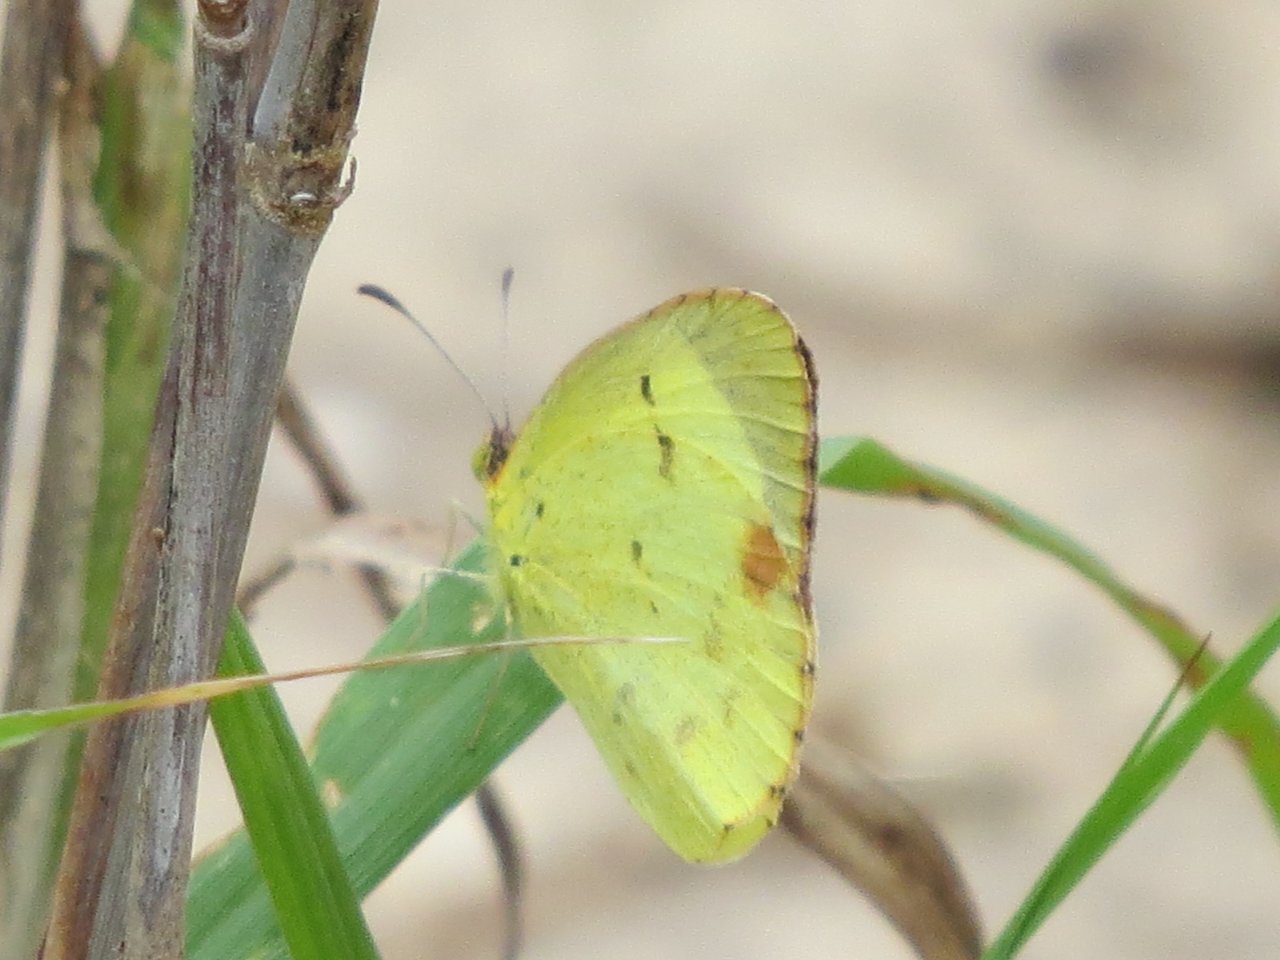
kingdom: Animalia
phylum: Arthropoda
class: Insecta
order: Lepidoptera
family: Pieridae
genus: Pyrisitia
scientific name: Pyrisitia lisa
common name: Little Yellow
